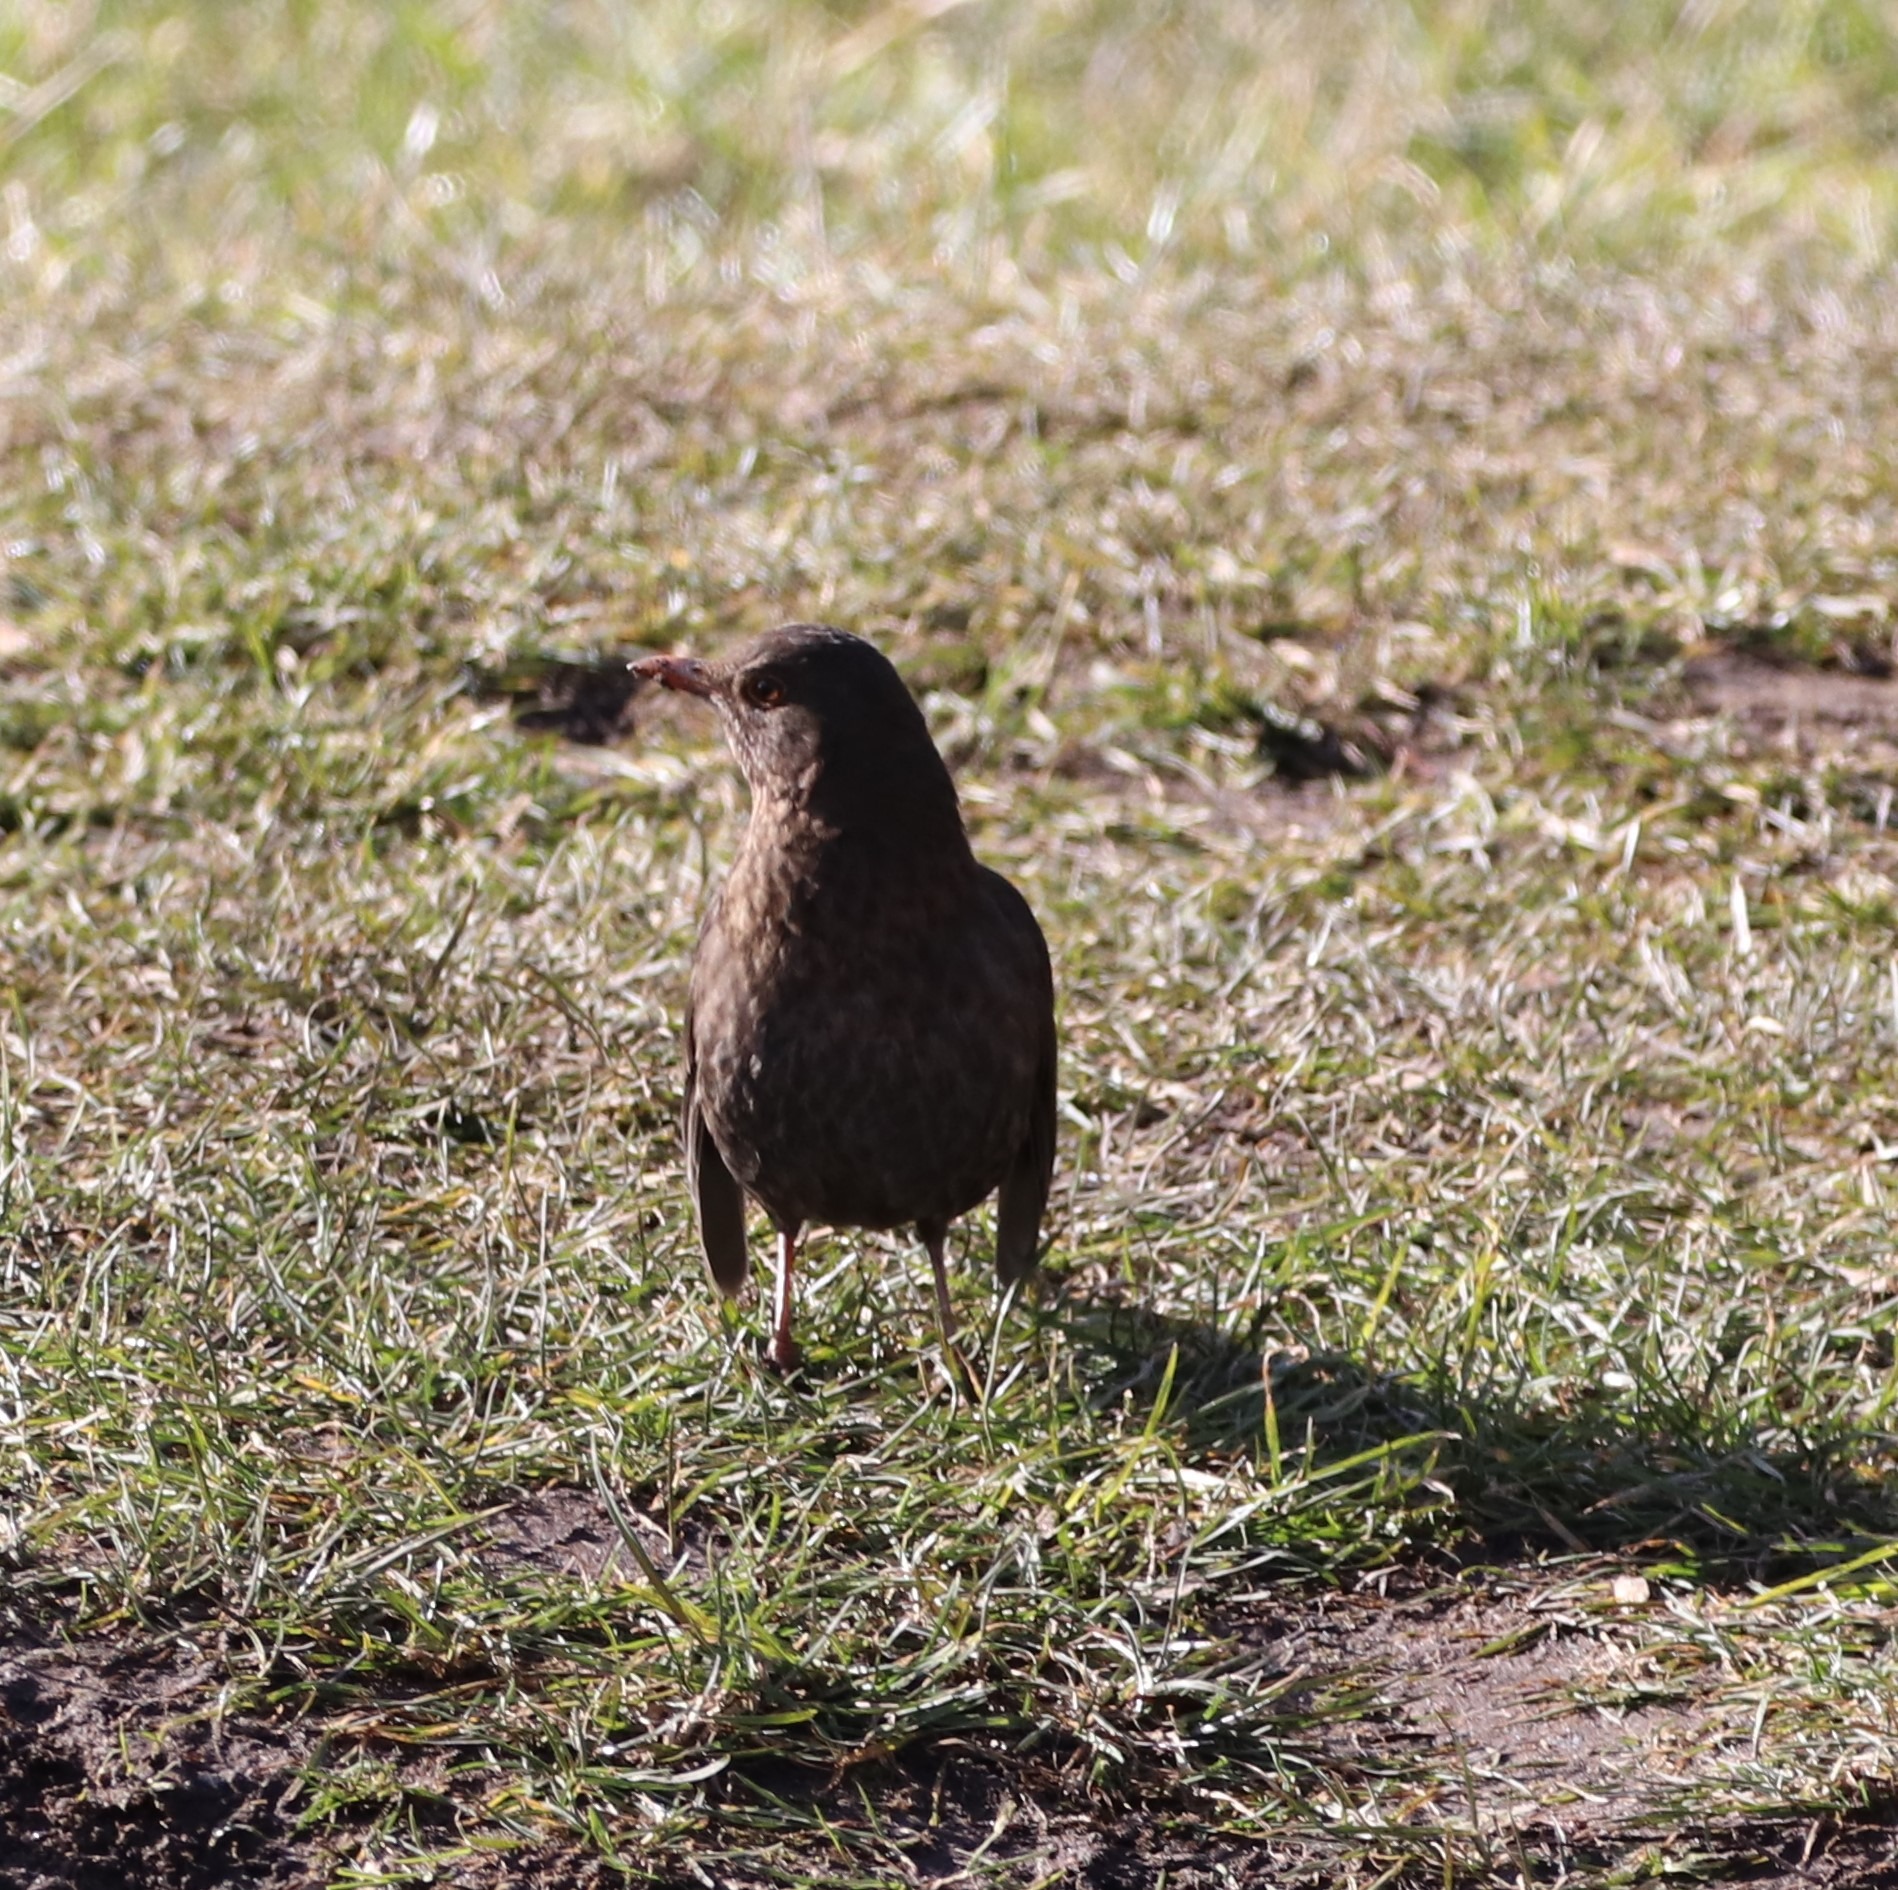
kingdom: Animalia
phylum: Chordata
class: Aves
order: Passeriformes
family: Turdidae
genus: Turdus
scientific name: Turdus merula
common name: Solsort
